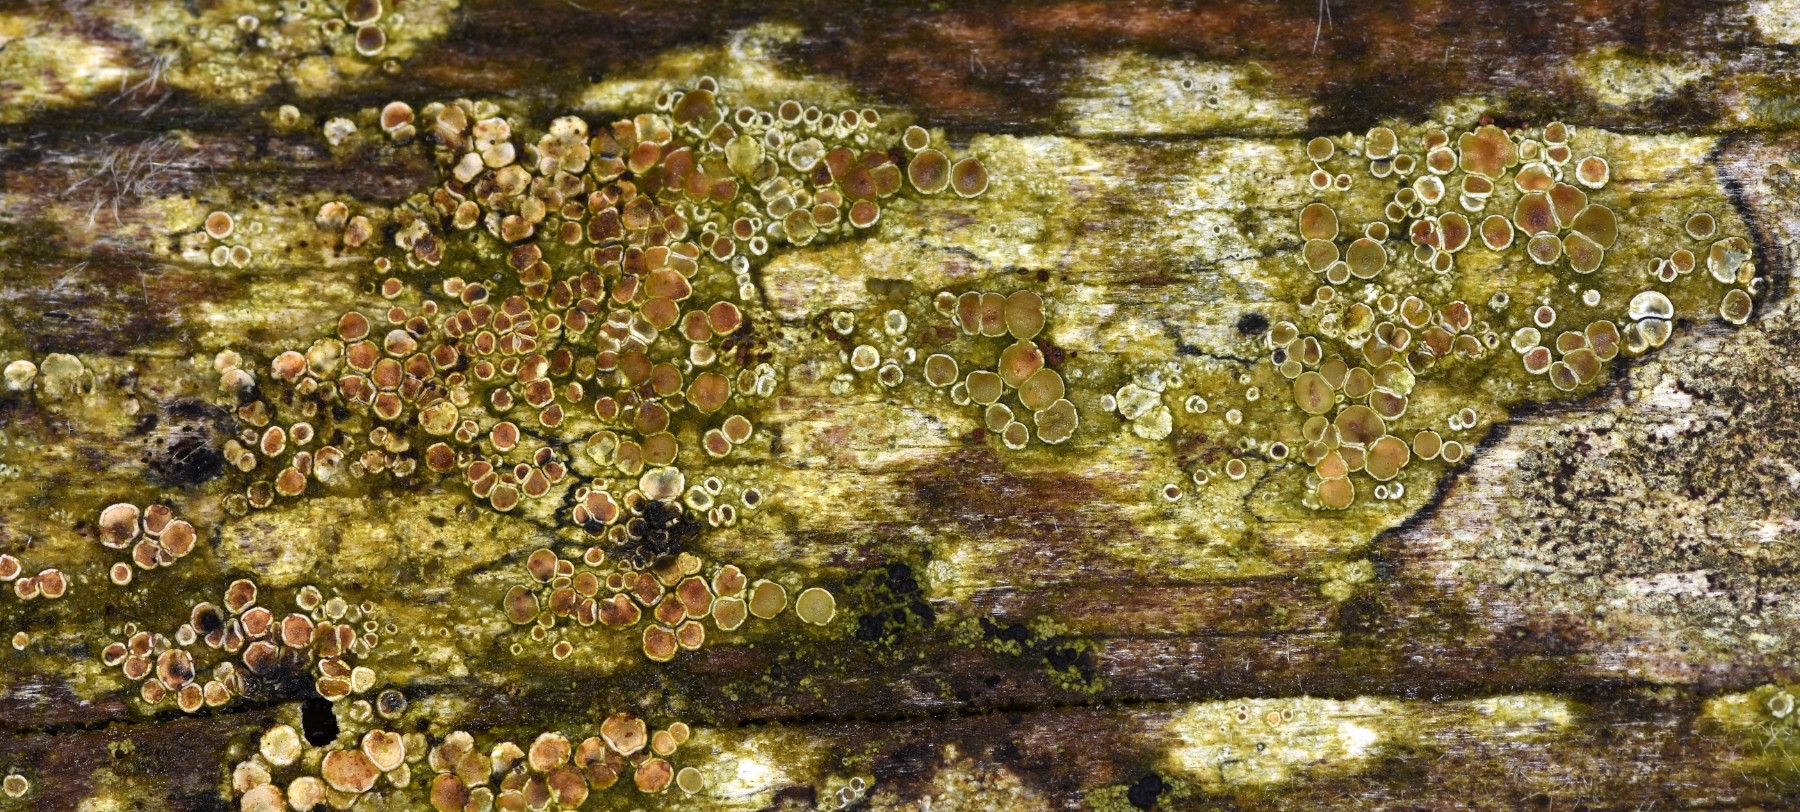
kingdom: Fungi
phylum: Ascomycota
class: Lecanoromycetes
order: Lecanorales
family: Lecanoraceae
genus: Lecanora
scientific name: Lecanora chlarotera
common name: brun kantskivelav
